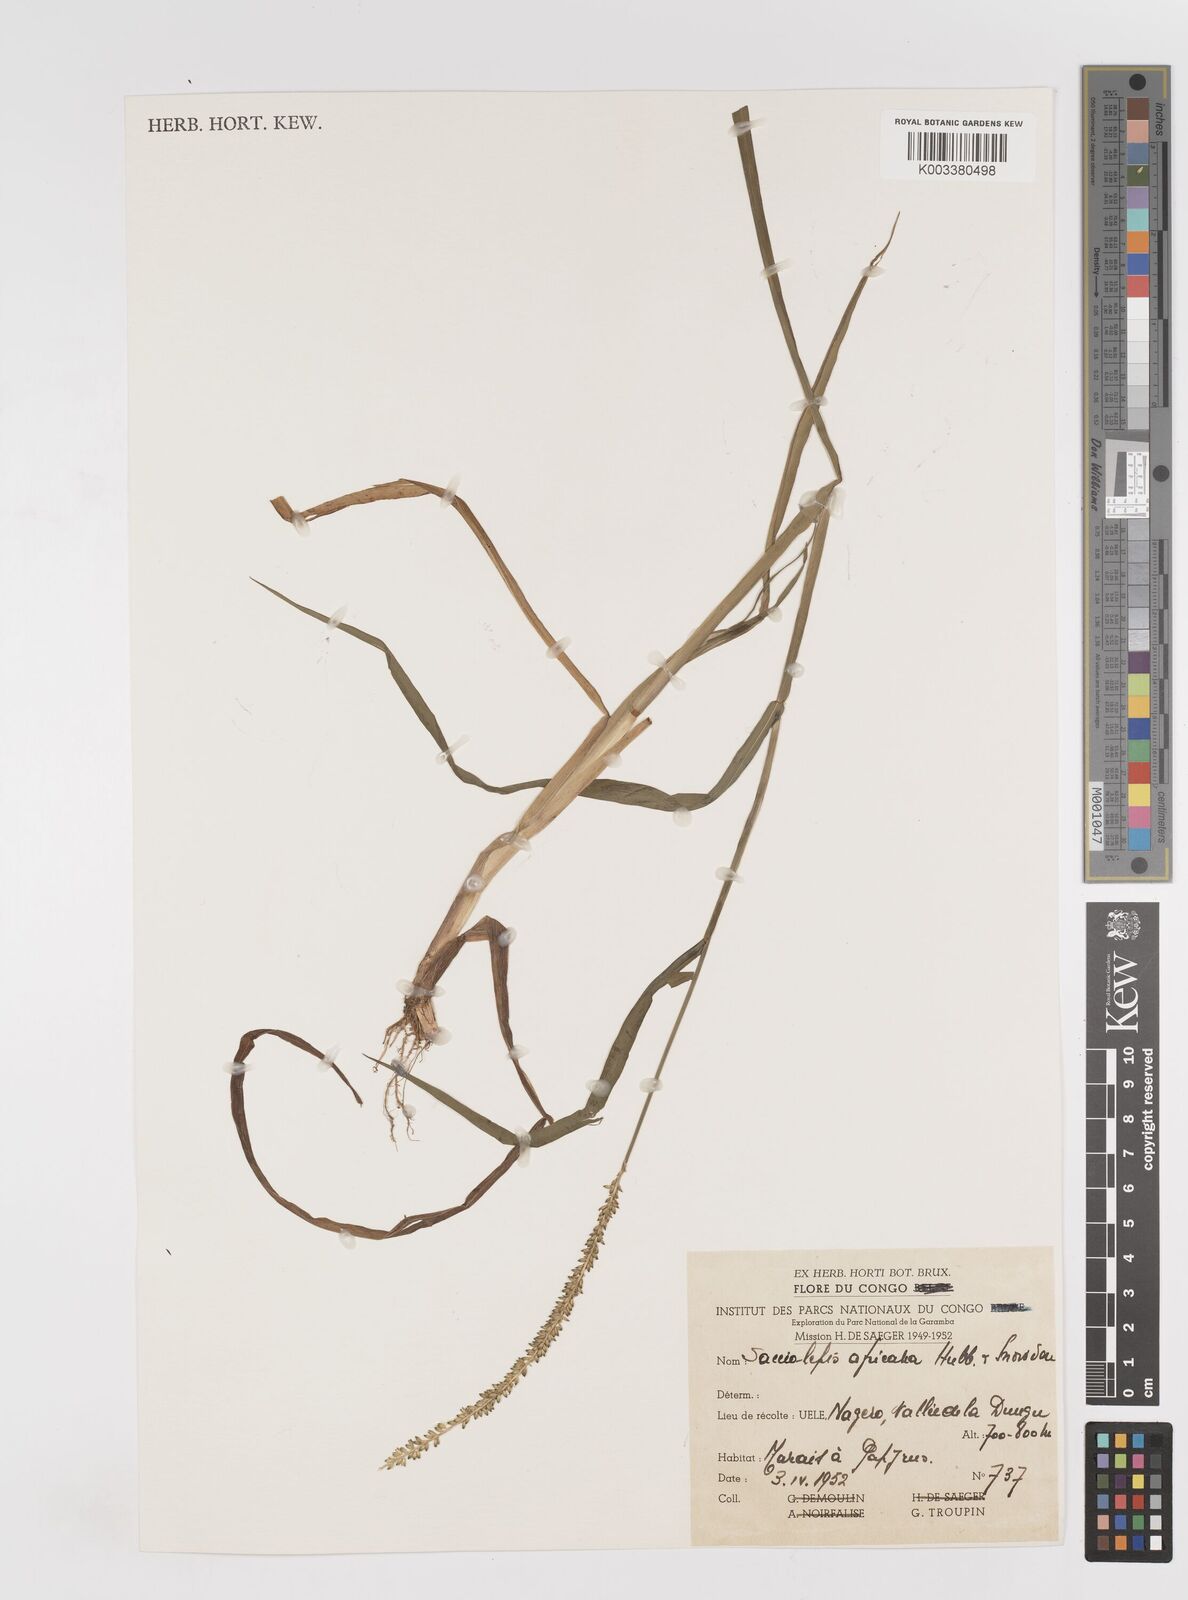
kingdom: Plantae
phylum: Tracheophyta
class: Liliopsida
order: Poales
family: Poaceae
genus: Sacciolepis
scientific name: Sacciolepis africana
